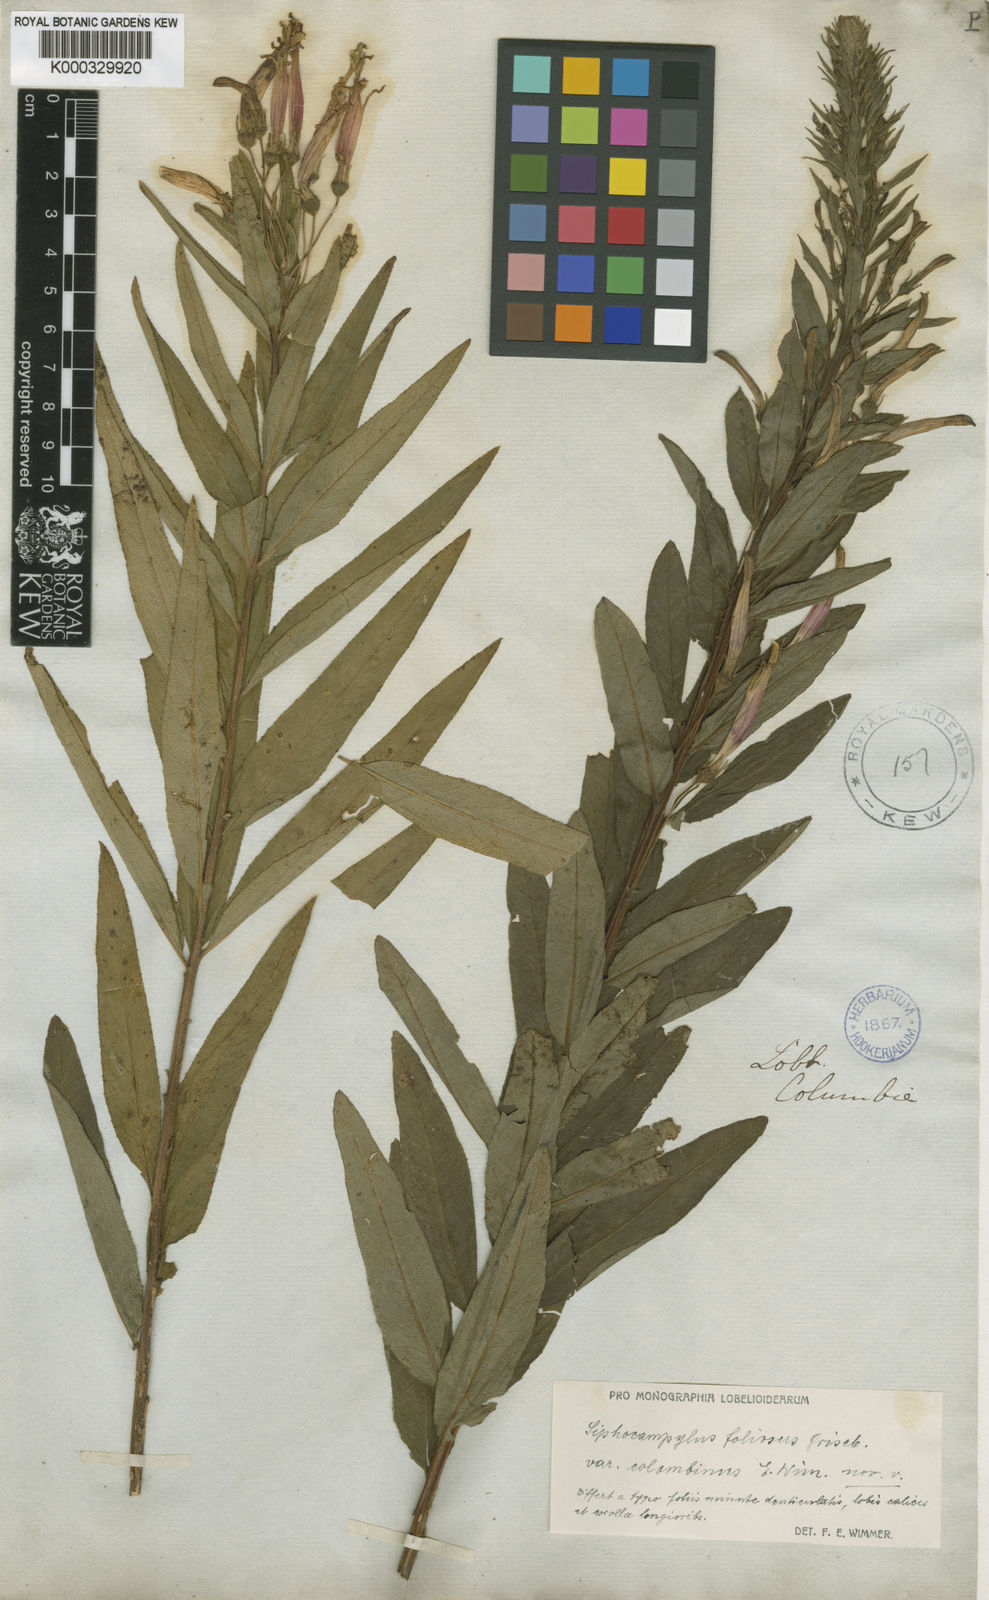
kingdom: Plantae
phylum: Tracheophyta
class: Magnoliopsida
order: Asterales
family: Campanulaceae
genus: Siphocampylus
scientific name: Siphocampylus foliosus
